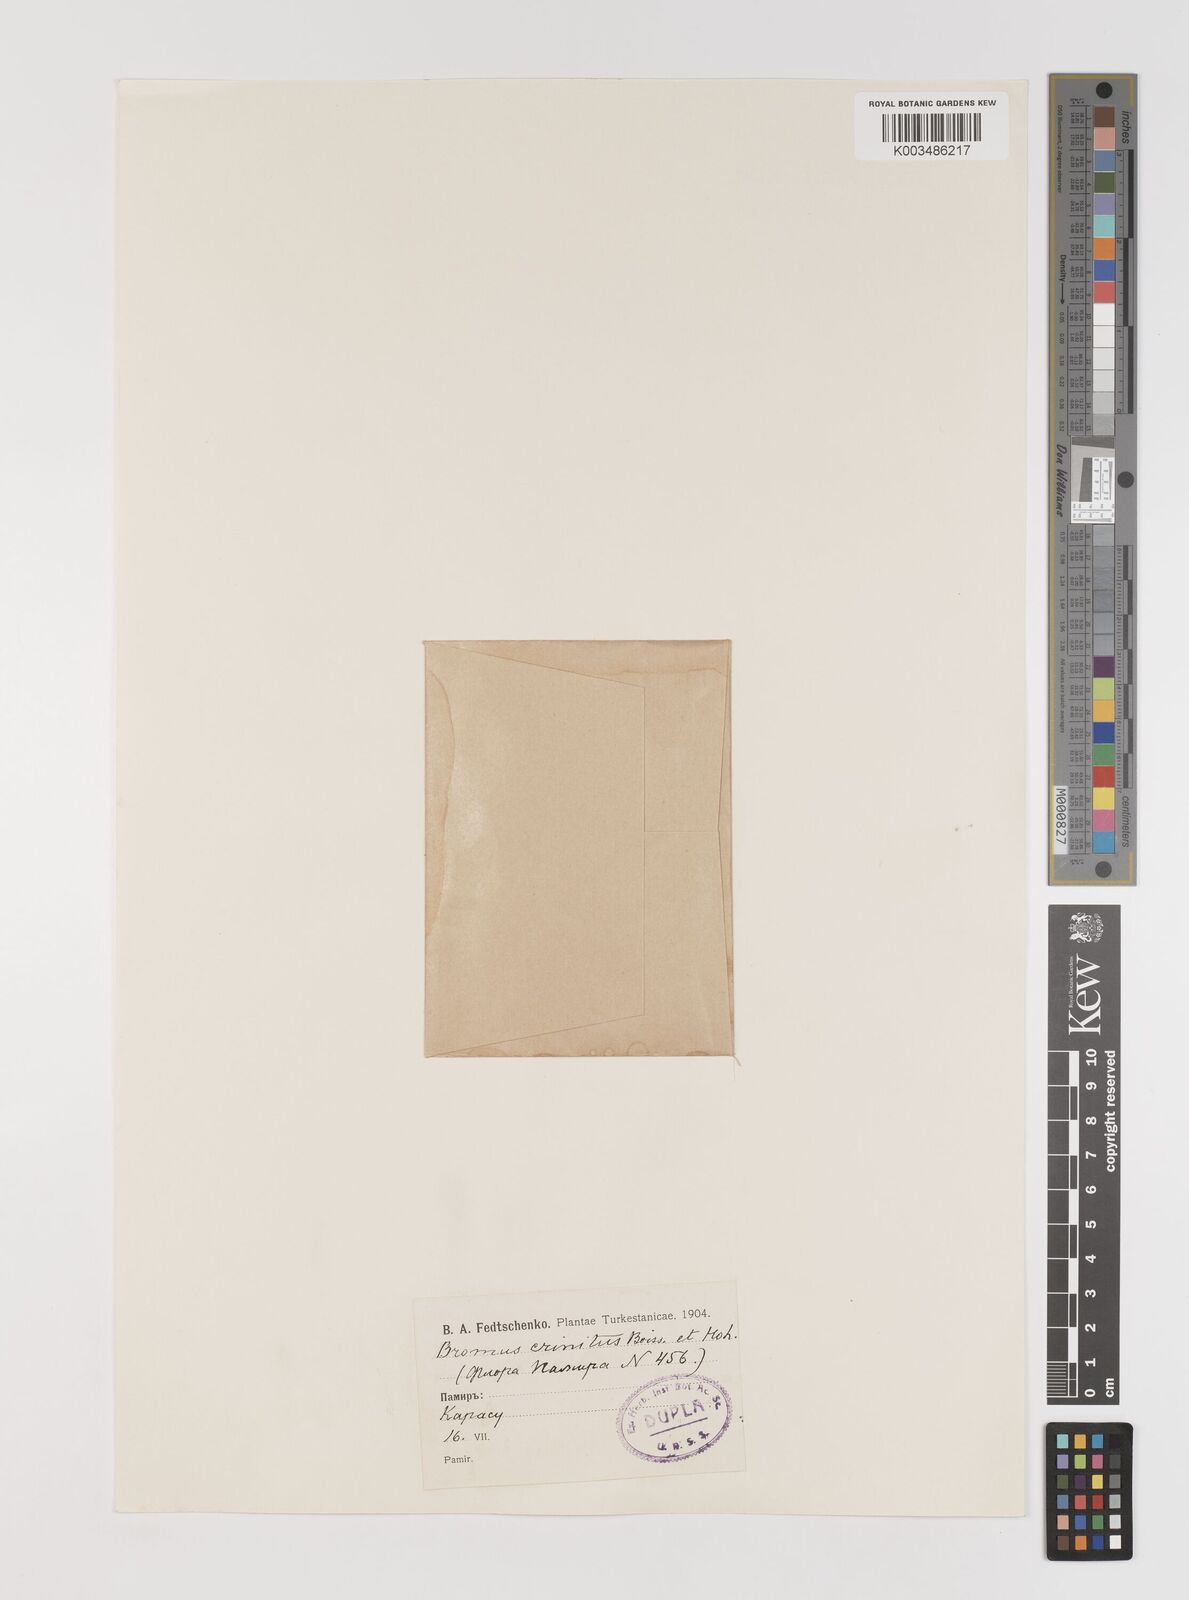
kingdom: Plantae
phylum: Tracheophyta
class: Liliopsida
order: Poales
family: Poaceae
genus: Bromus
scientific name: Bromus gracillimus
